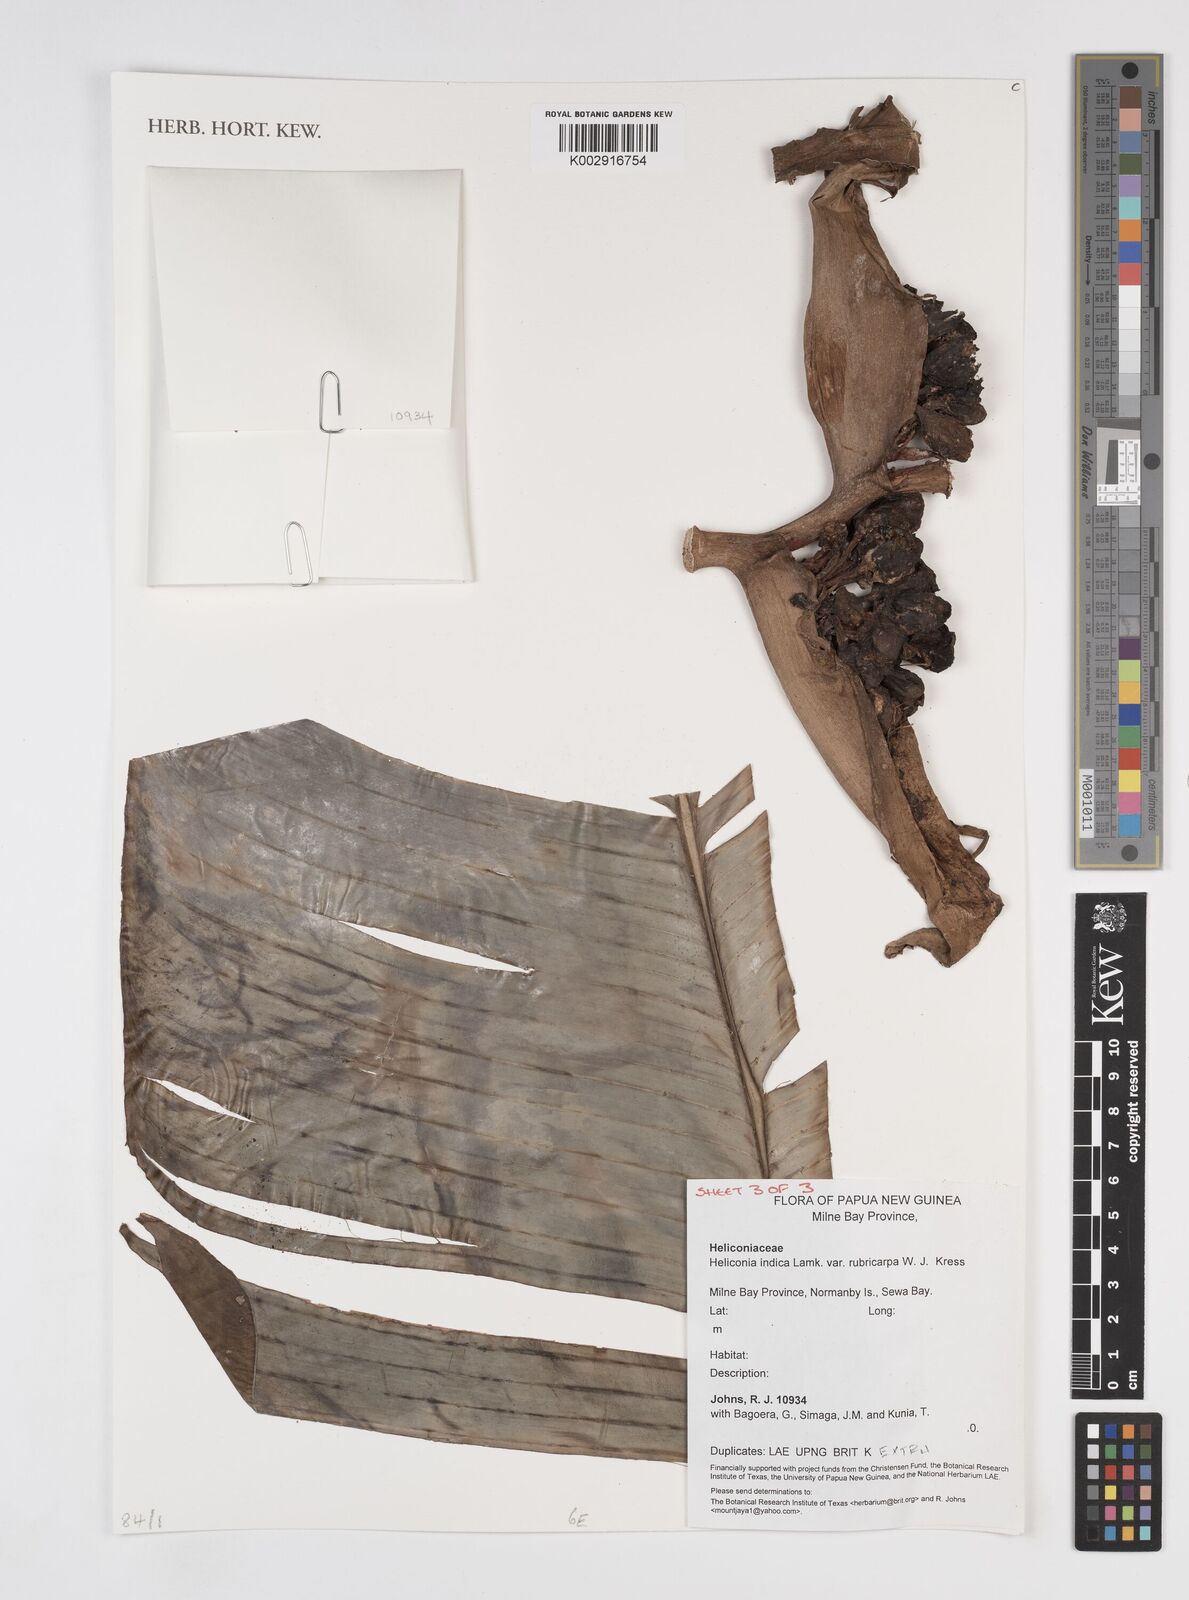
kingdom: Plantae
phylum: Tracheophyta
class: Liliopsida
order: Zingiberales
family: Heliconiaceae
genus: Heliconia
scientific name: Heliconia indica
